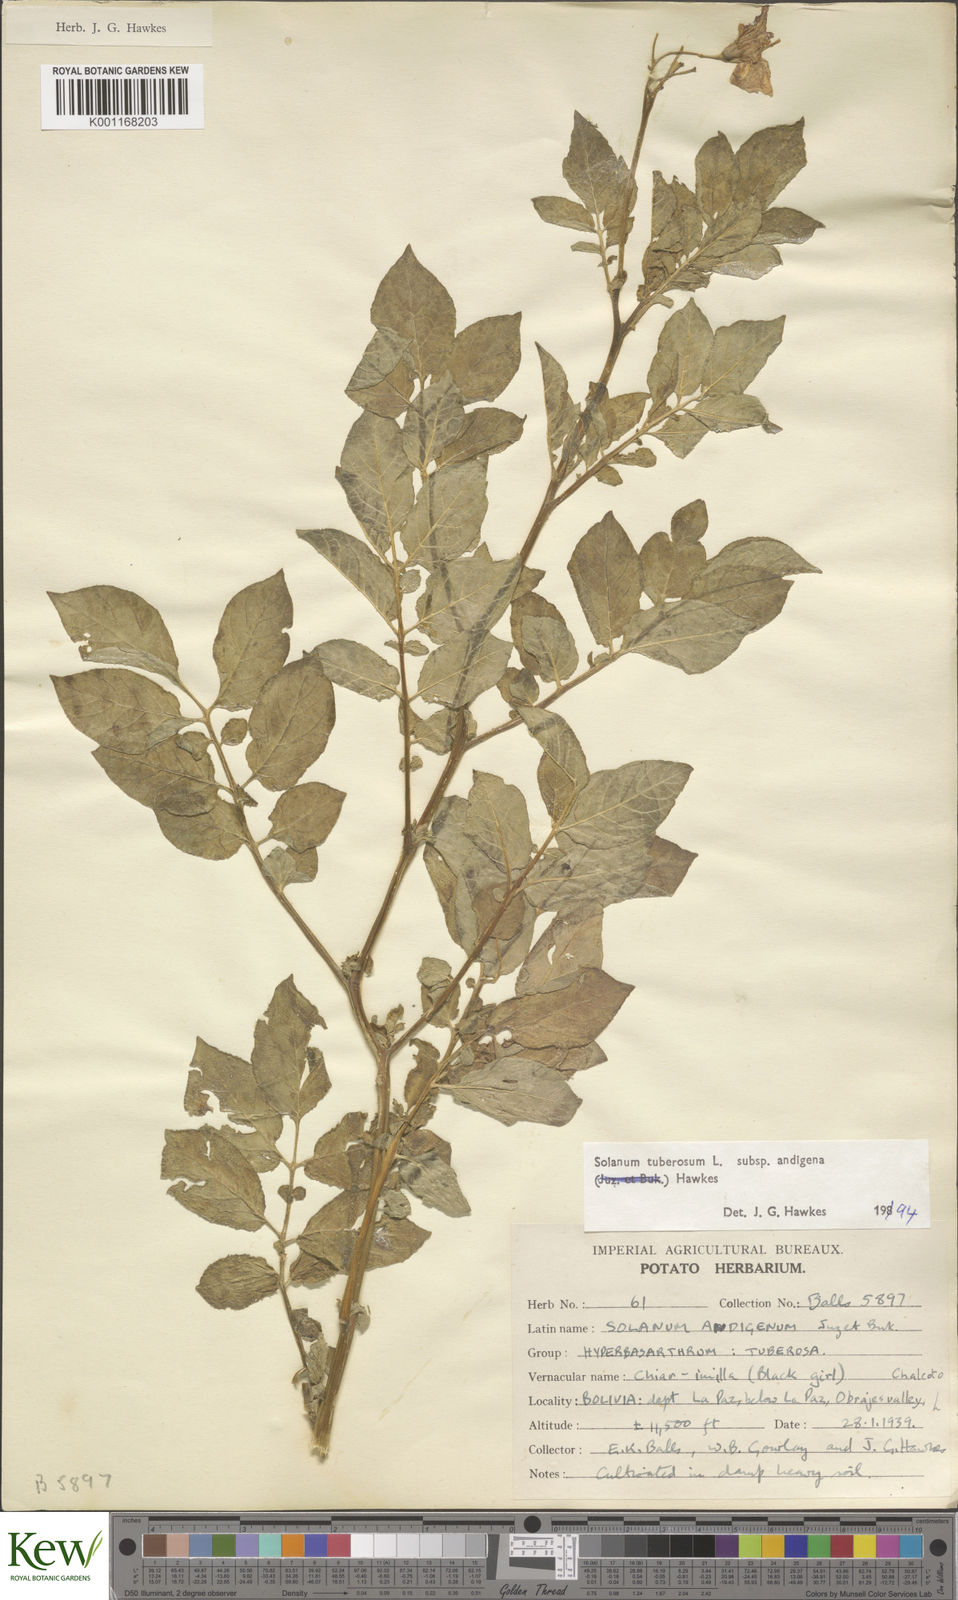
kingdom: Plantae
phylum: Tracheophyta
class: Magnoliopsida
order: Solanales
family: Solanaceae
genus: Solanum
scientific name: Solanum tuberosum
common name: Potato
